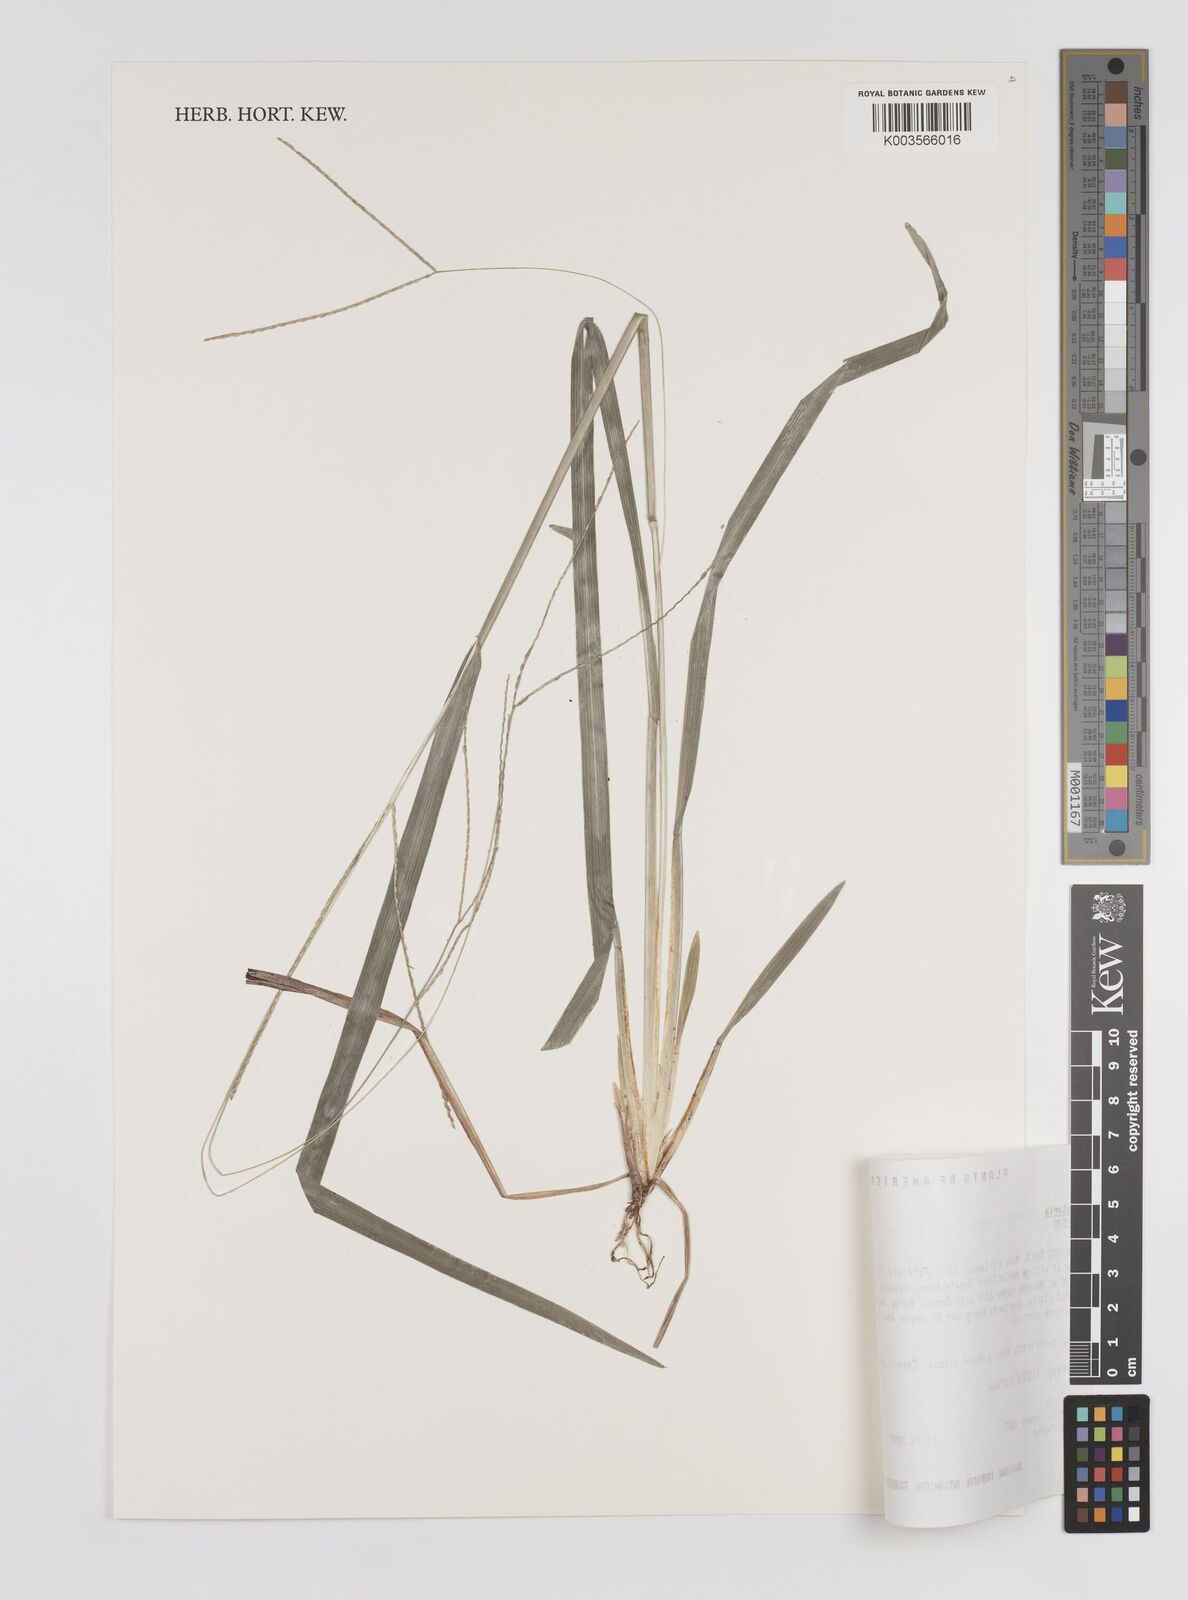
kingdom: Plantae
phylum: Tracheophyta
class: Liliopsida
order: Poales
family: Poaceae
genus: Axonopus
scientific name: Axonopus compressus
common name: American carpet grass
